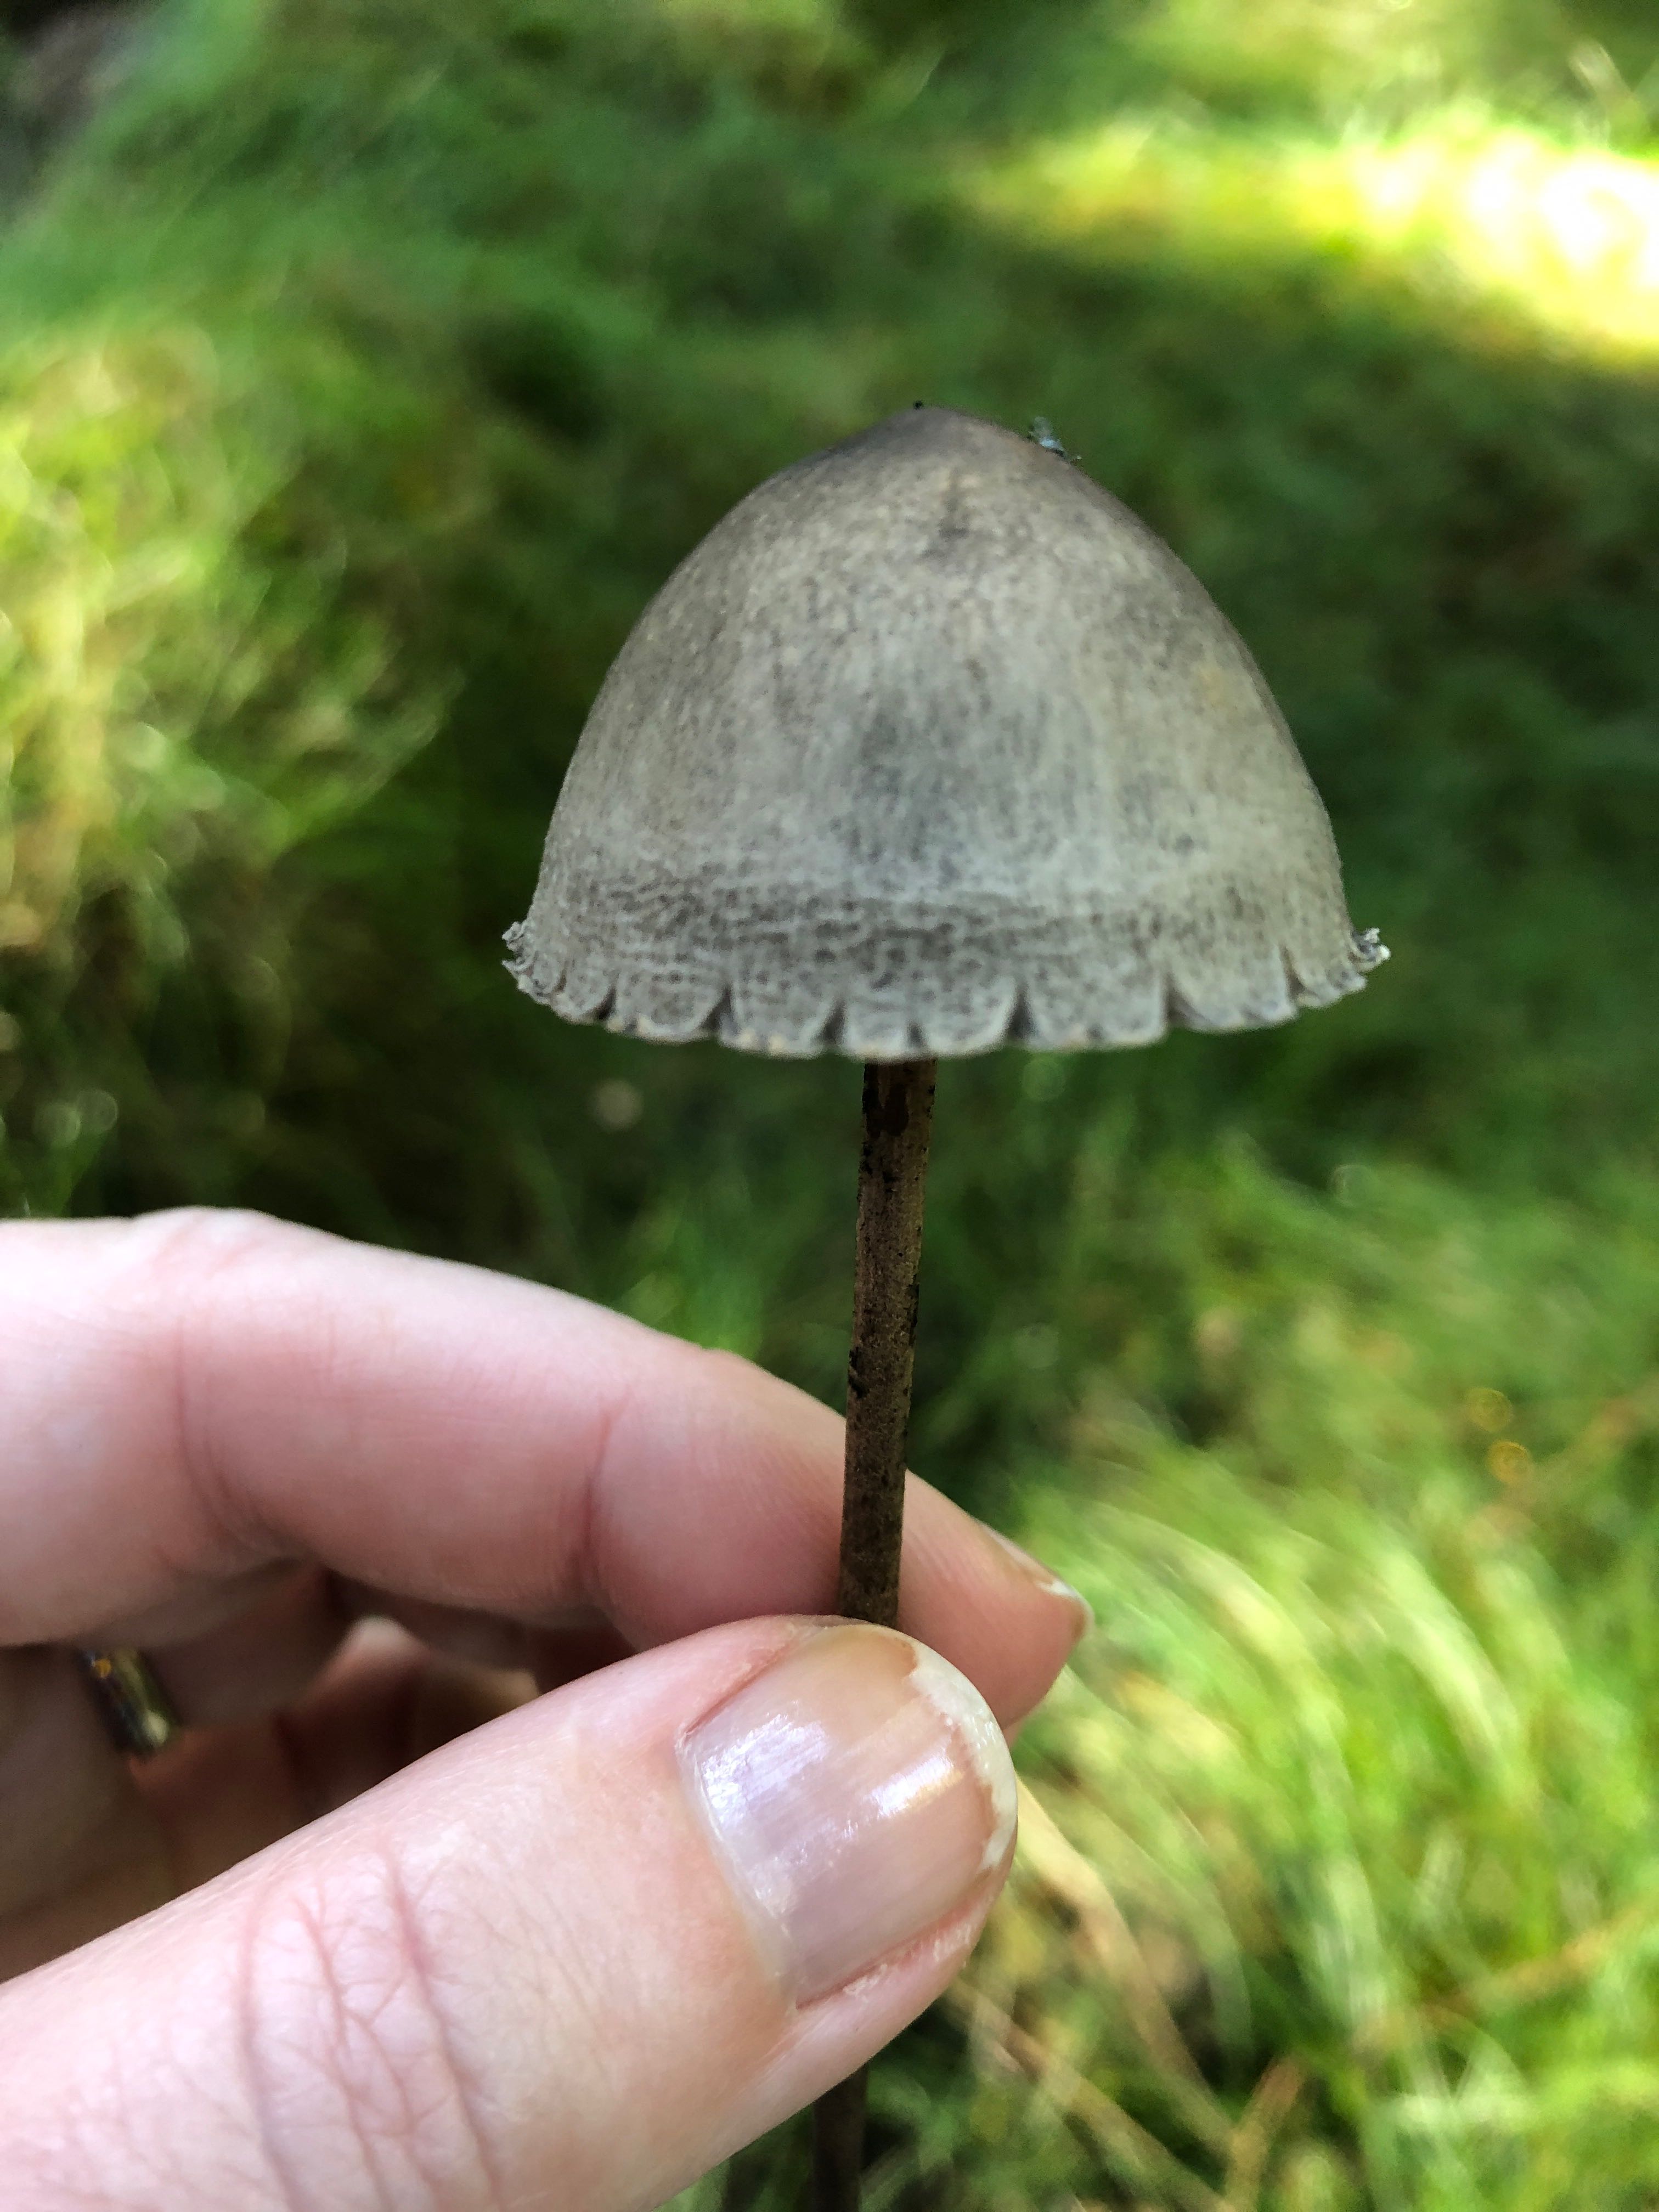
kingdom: Fungi
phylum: Basidiomycota
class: Agaricomycetes
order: Agaricales
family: Bolbitiaceae
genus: Panaeolus
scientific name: Panaeolus
